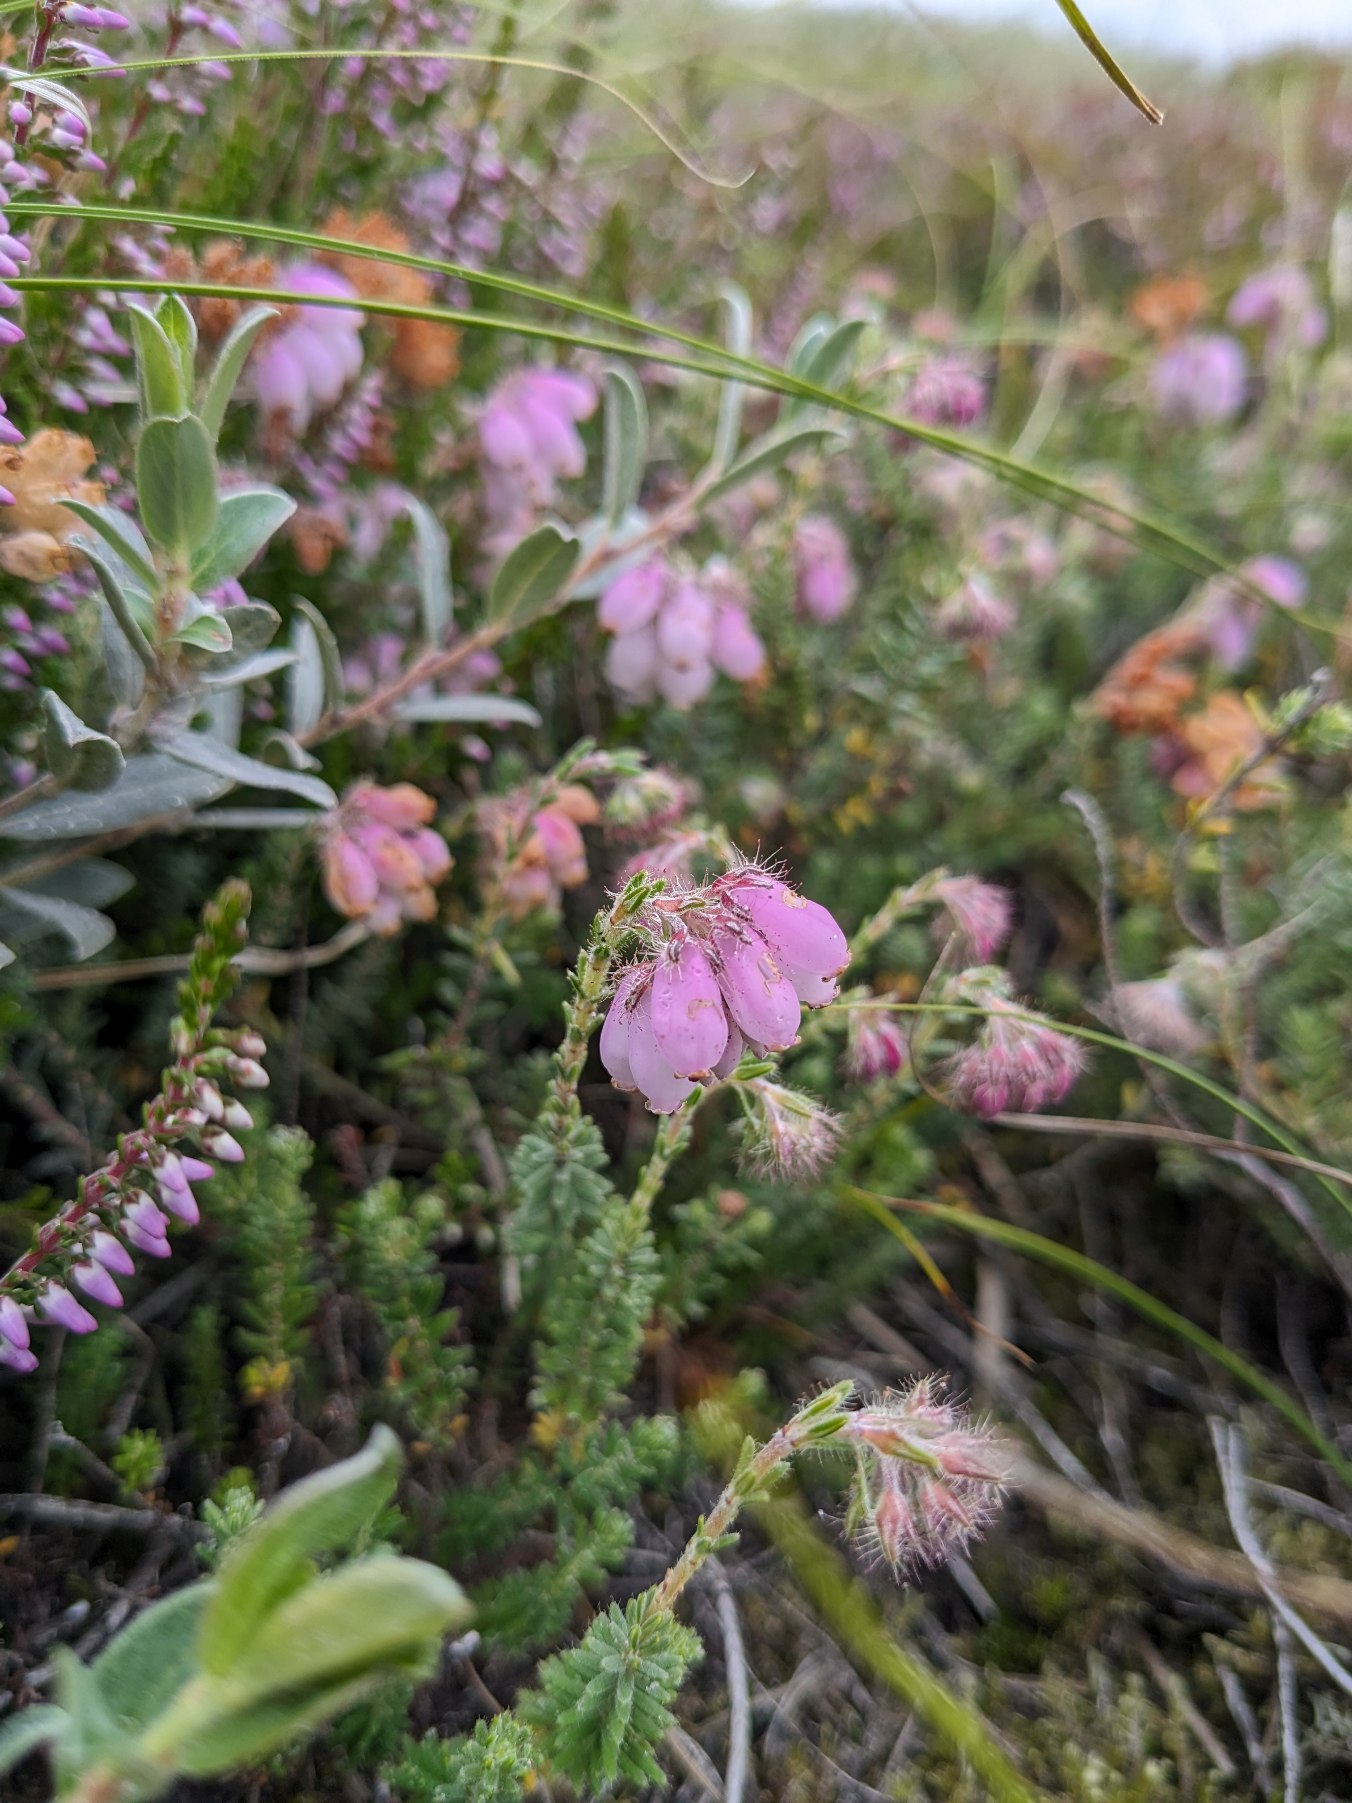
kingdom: Plantae
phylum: Tracheophyta
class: Magnoliopsida
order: Ericales
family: Ericaceae
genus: Erica
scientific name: Erica tetralix
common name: Klokkelyng
